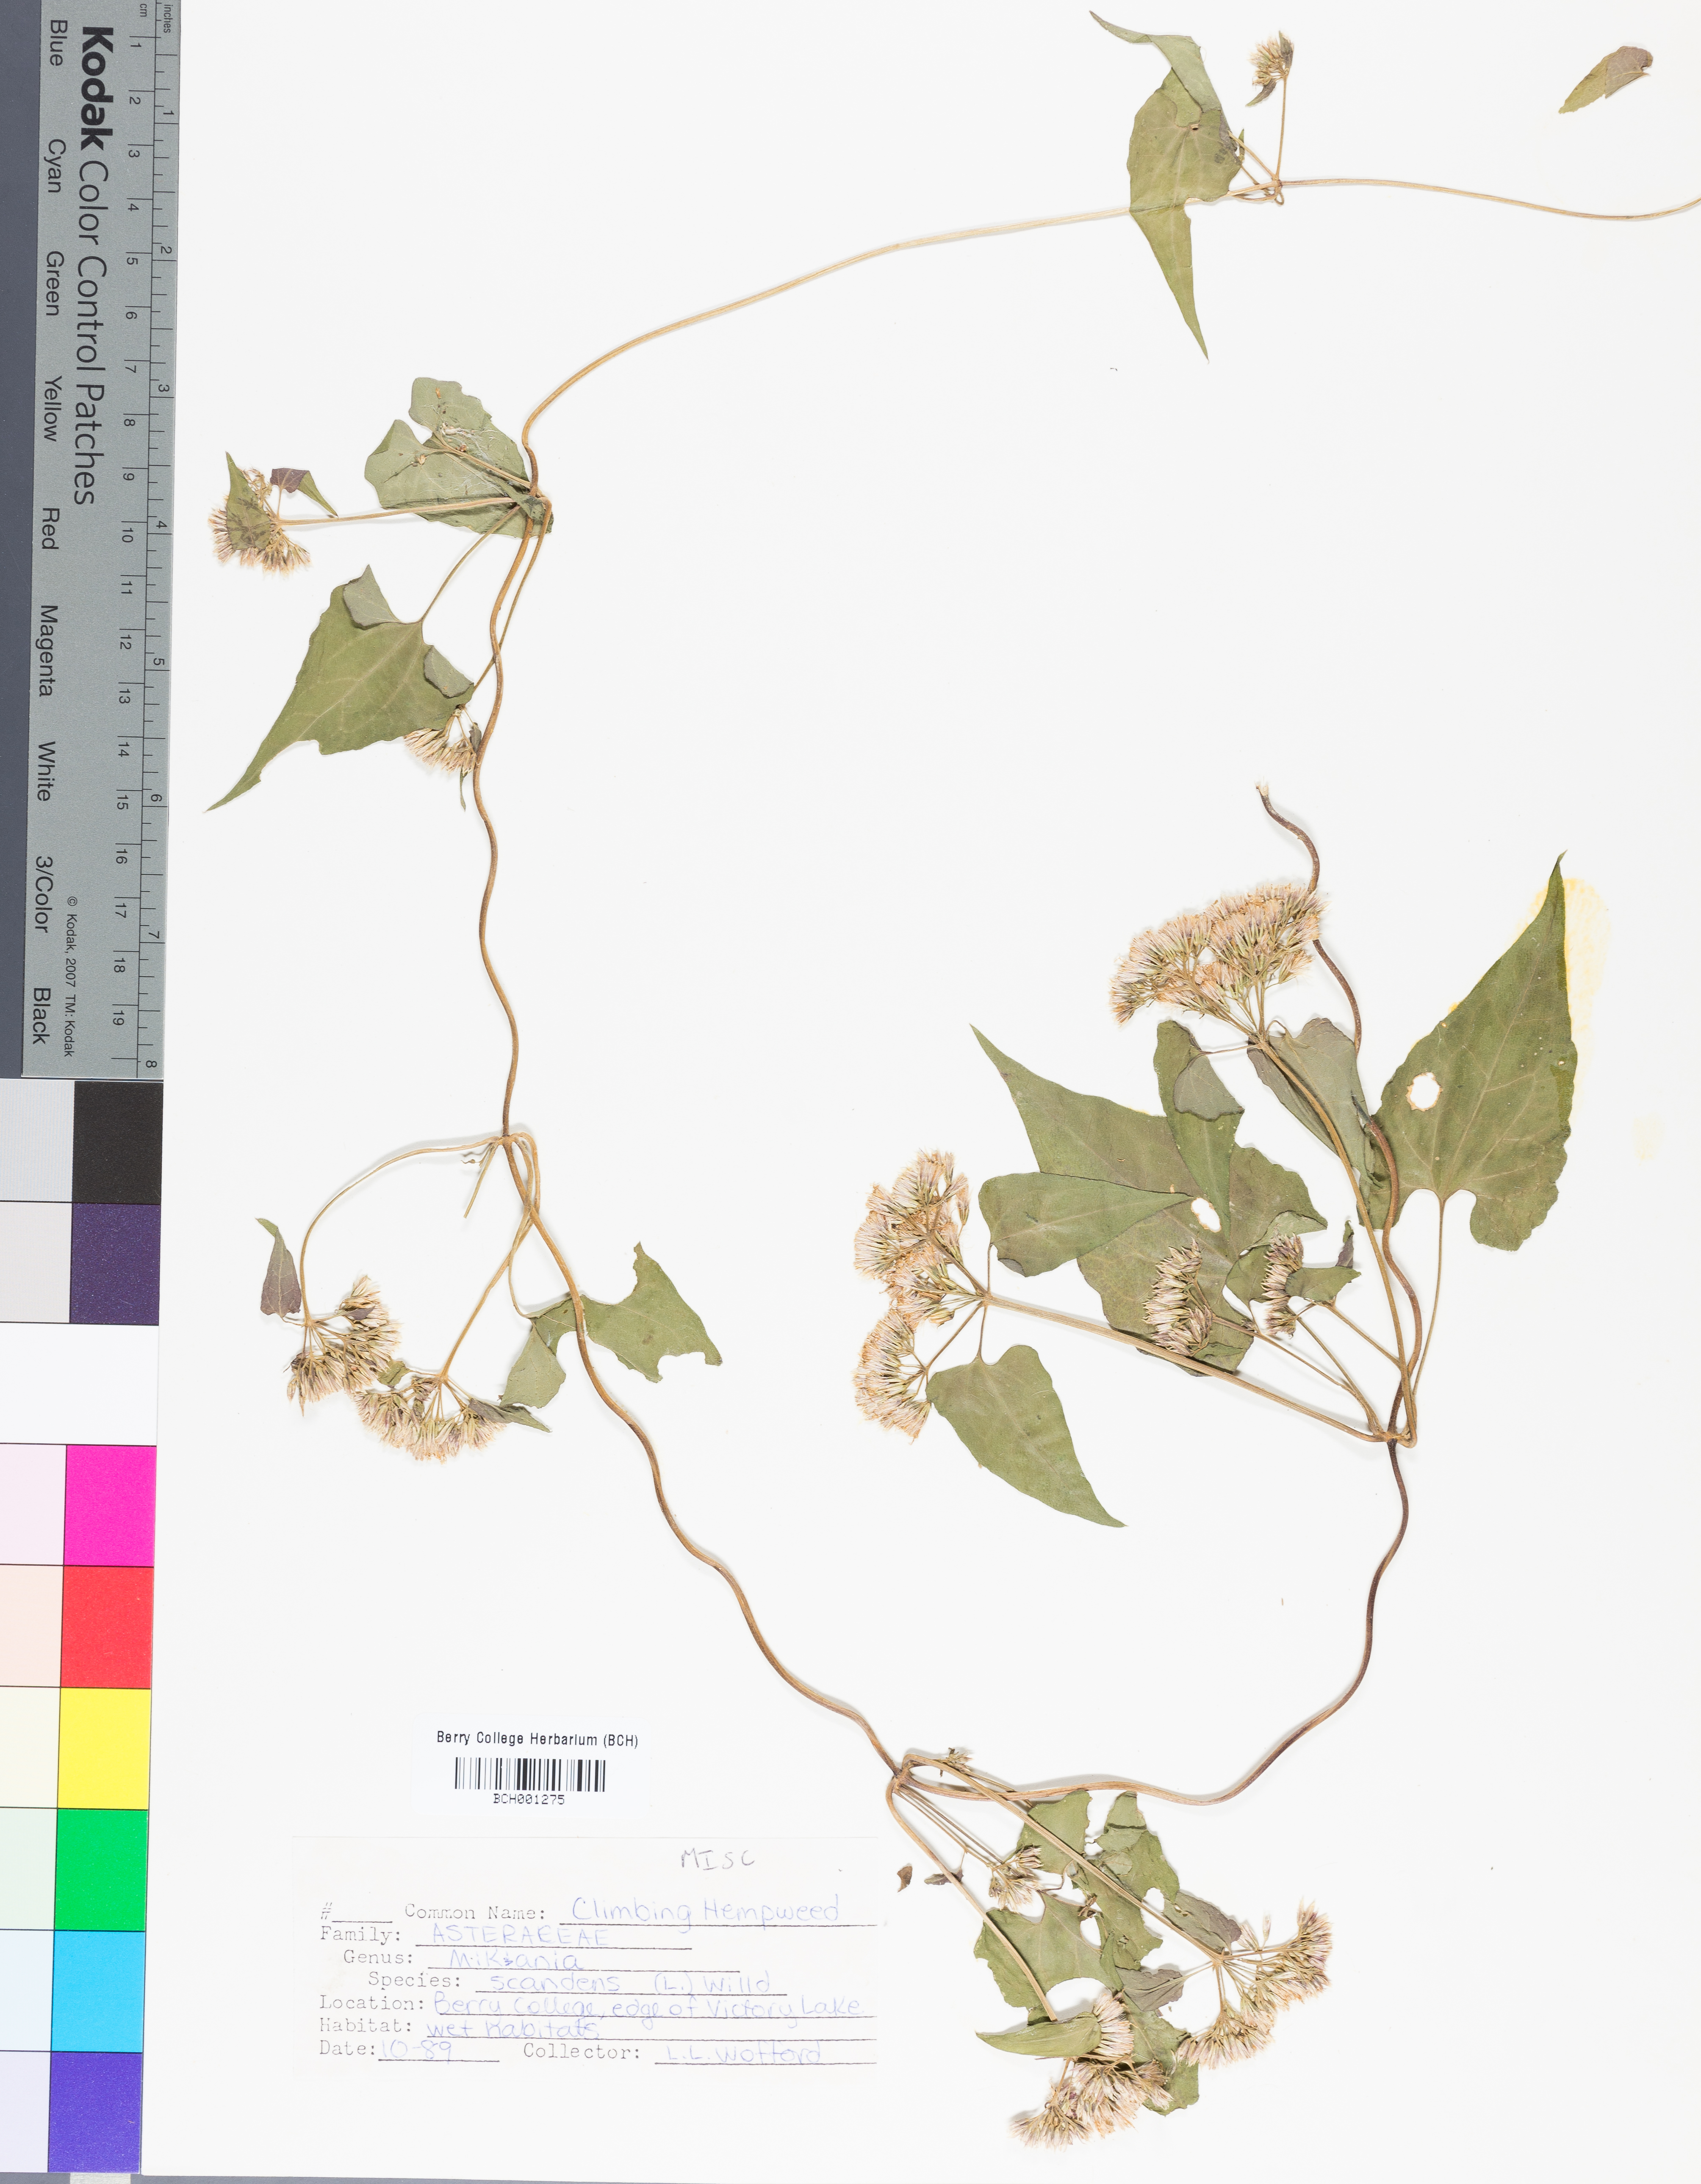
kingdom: Plantae
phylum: Tracheophyta
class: Magnoliopsida
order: Asterales
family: Asteraceae
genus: Mikania
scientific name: Mikania scandens
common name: Climbing hempvine
